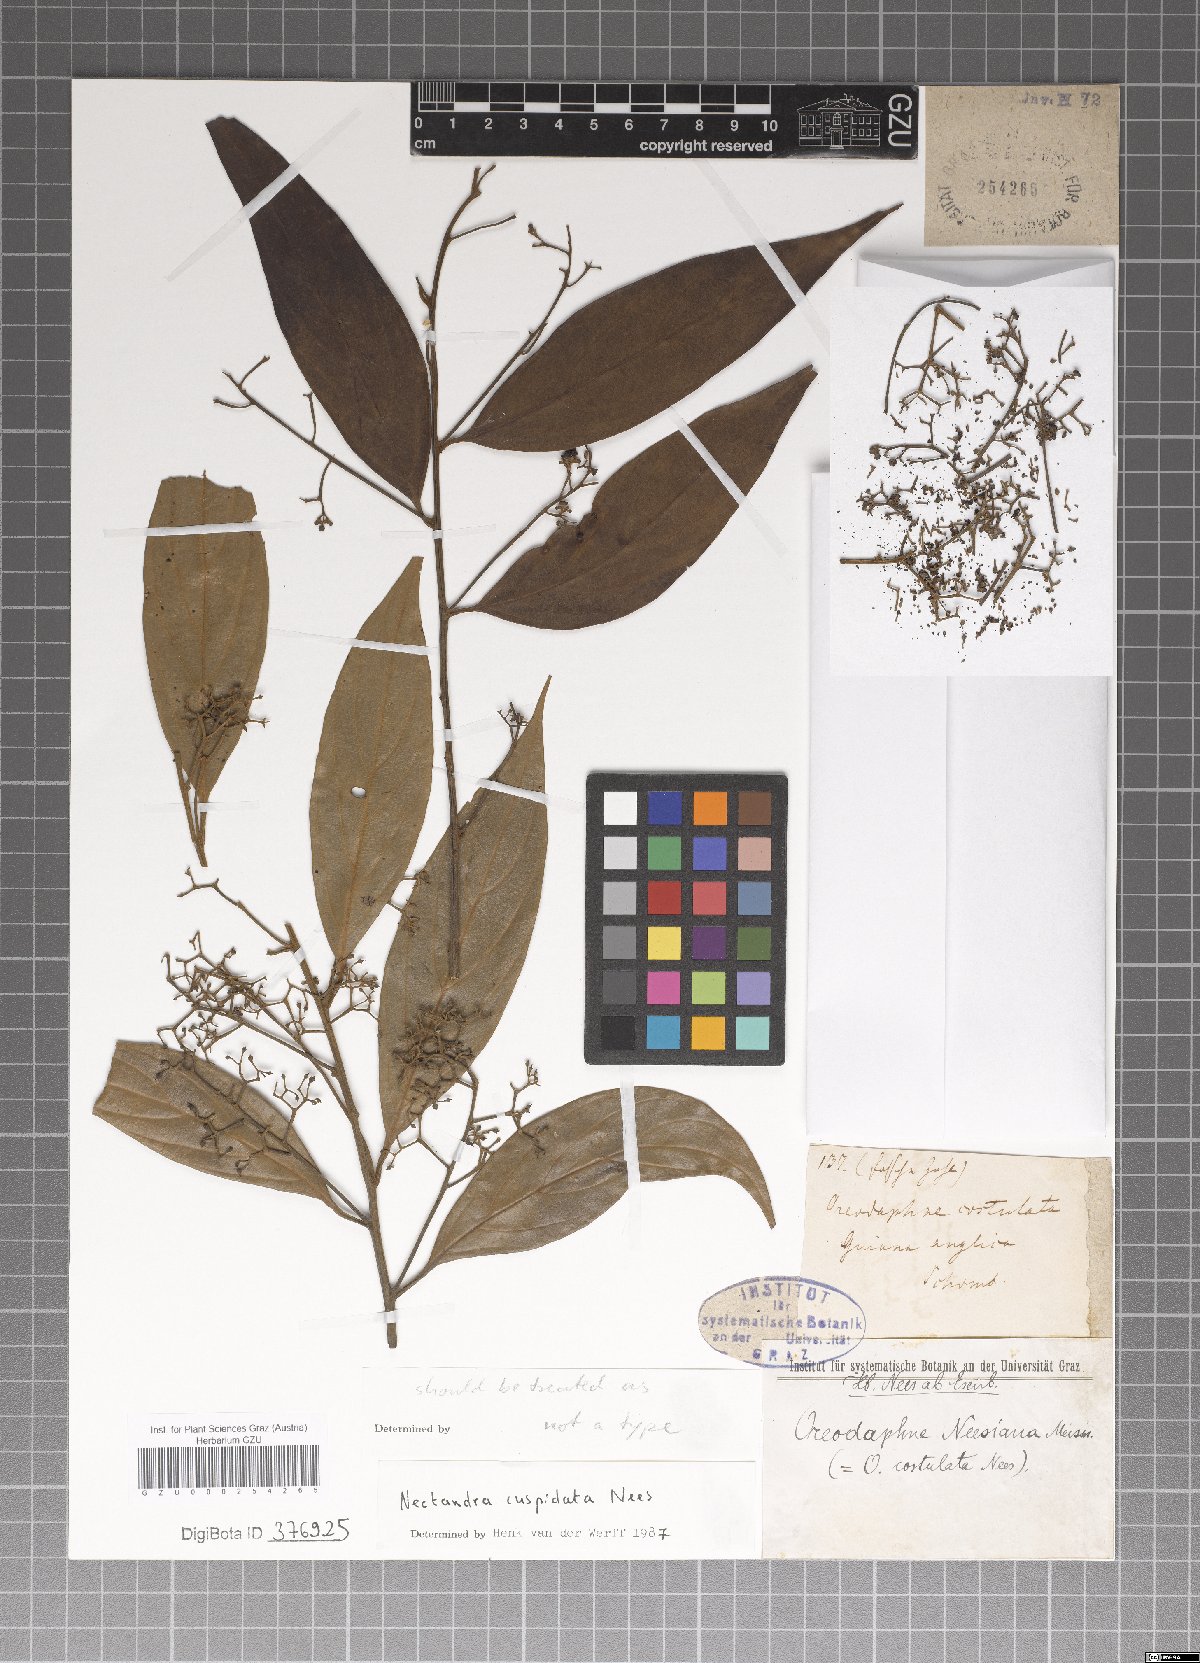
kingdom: Plantae
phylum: Tracheophyta
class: Magnoliopsida
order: Laurales
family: Lauraceae
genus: Nectandra
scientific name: Nectandra cuspidata
